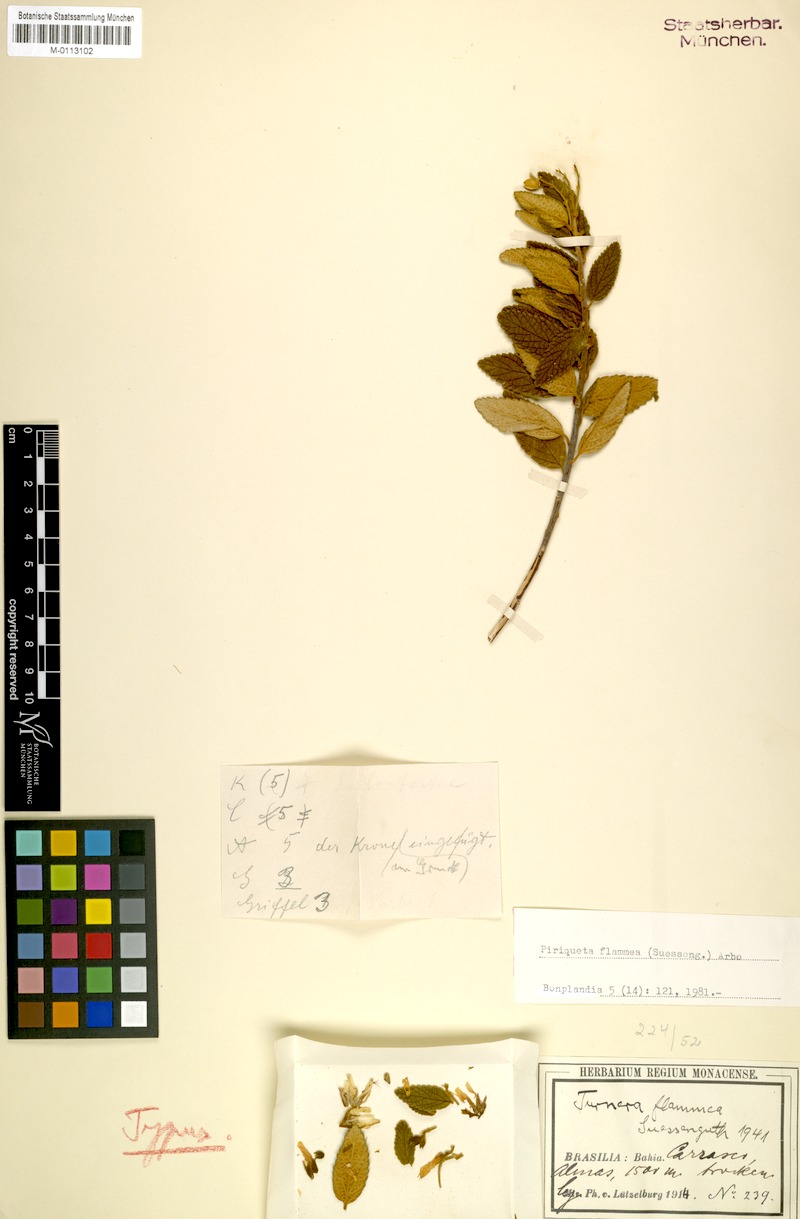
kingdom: Plantae
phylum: Tracheophyta
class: Magnoliopsida
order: Malpighiales
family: Turneraceae
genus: Piriqueta
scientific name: Piriqueta flammea
